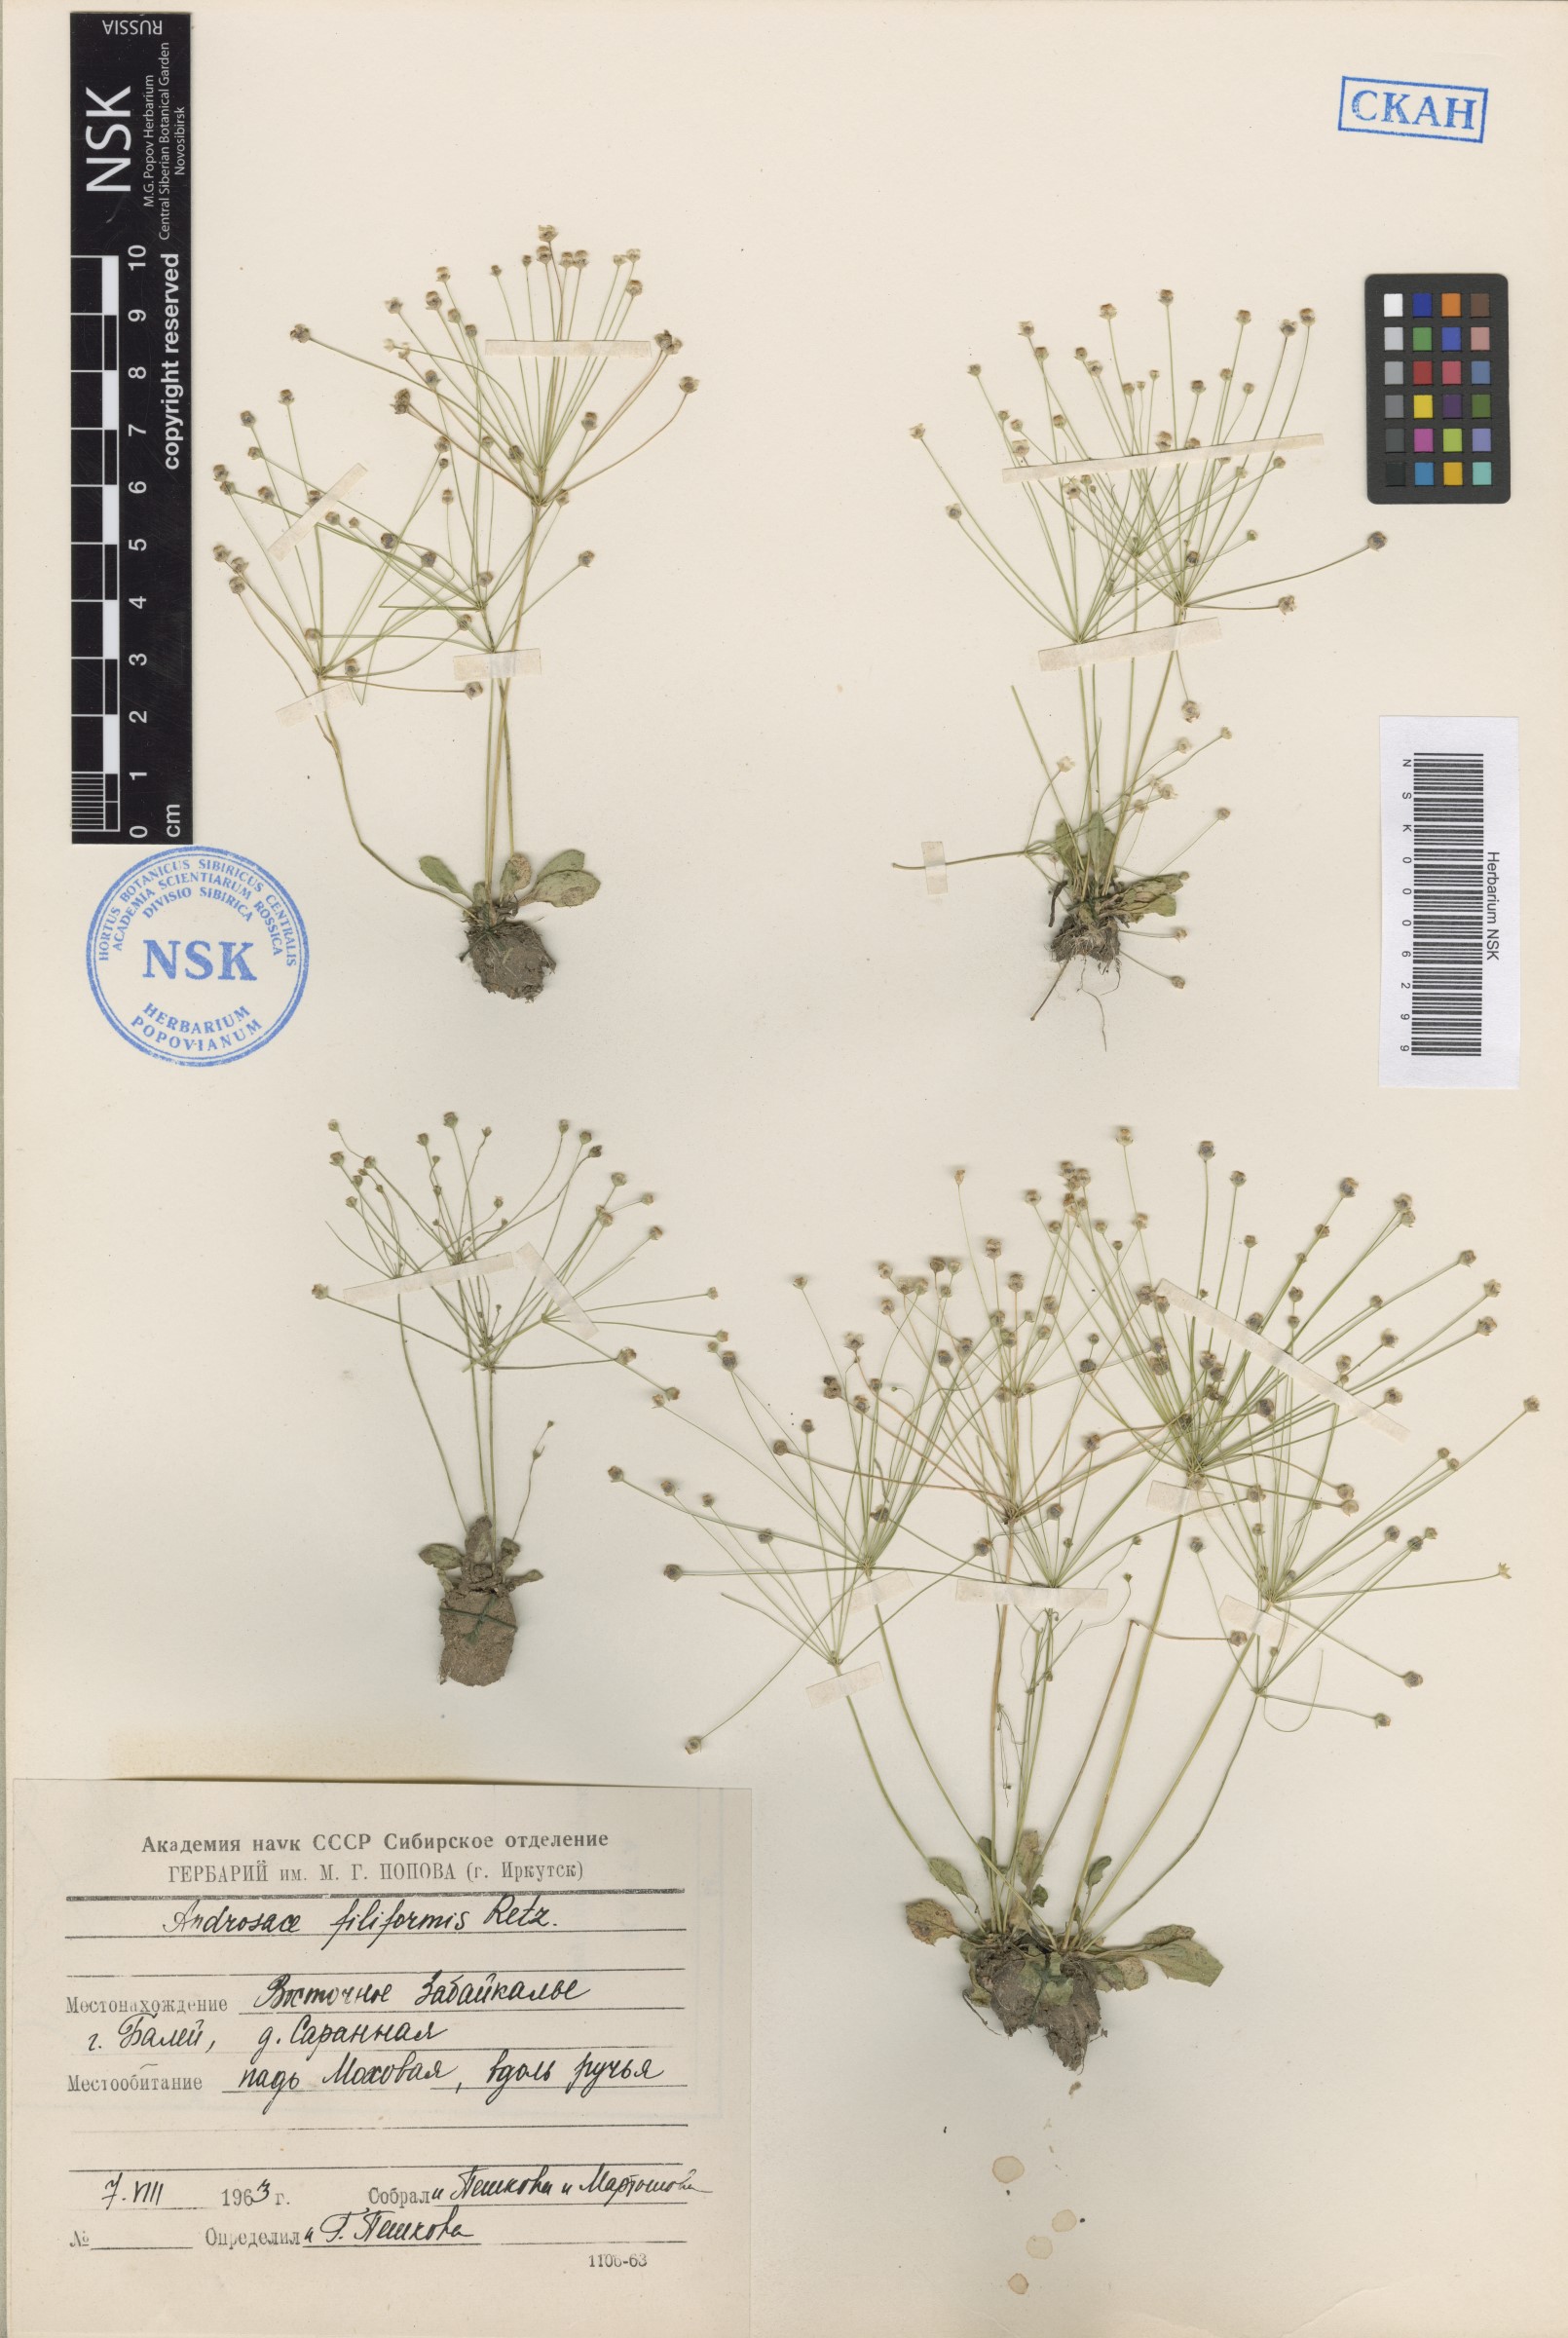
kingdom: Plantae
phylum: Tracheophyta
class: Magnoliopsida
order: Ericales
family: Primulaceae
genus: Androsace
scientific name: Androsace filiformis
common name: Filiform rock jasmine
